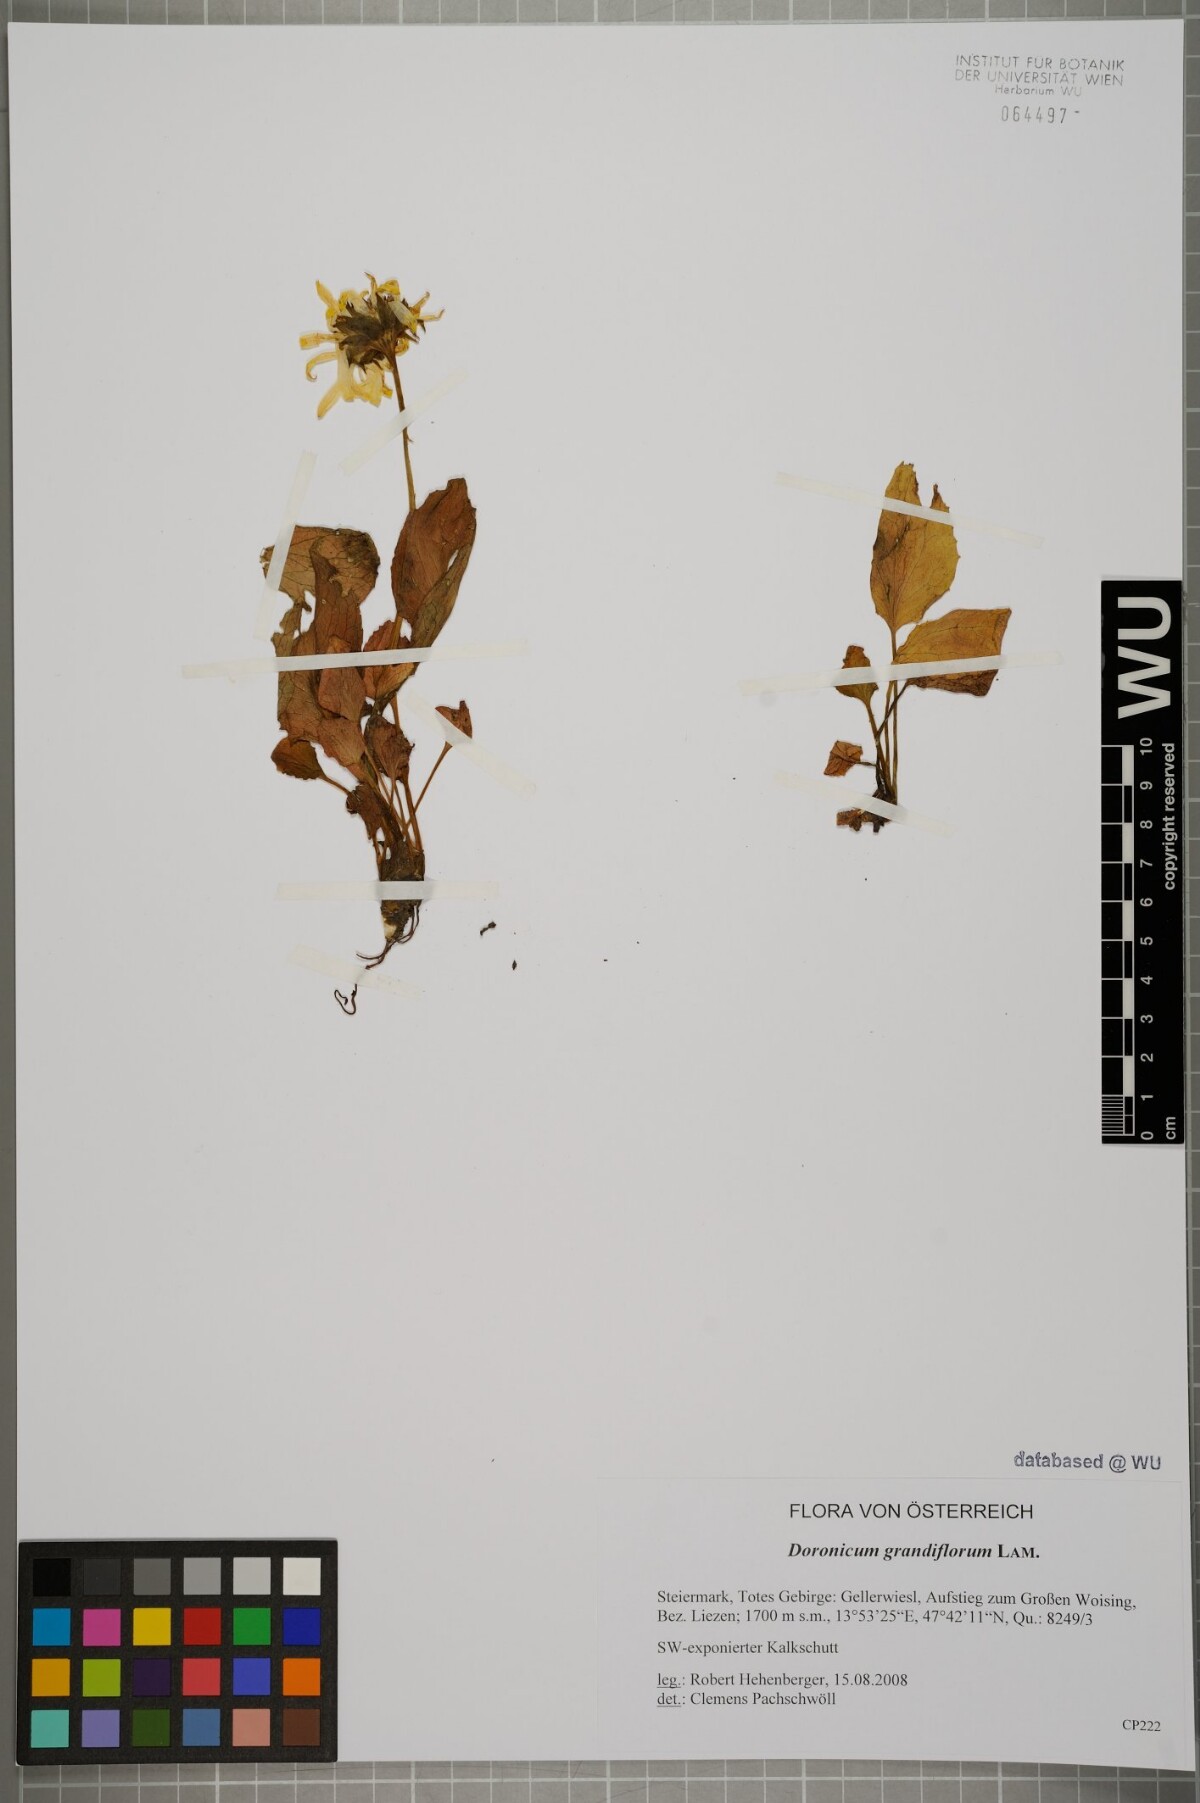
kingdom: Plantae
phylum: Tracheophyta
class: Magnoliopsida
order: Asterales
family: Asteraceae
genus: Doronicum
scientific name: Doronicum grandiflorum
